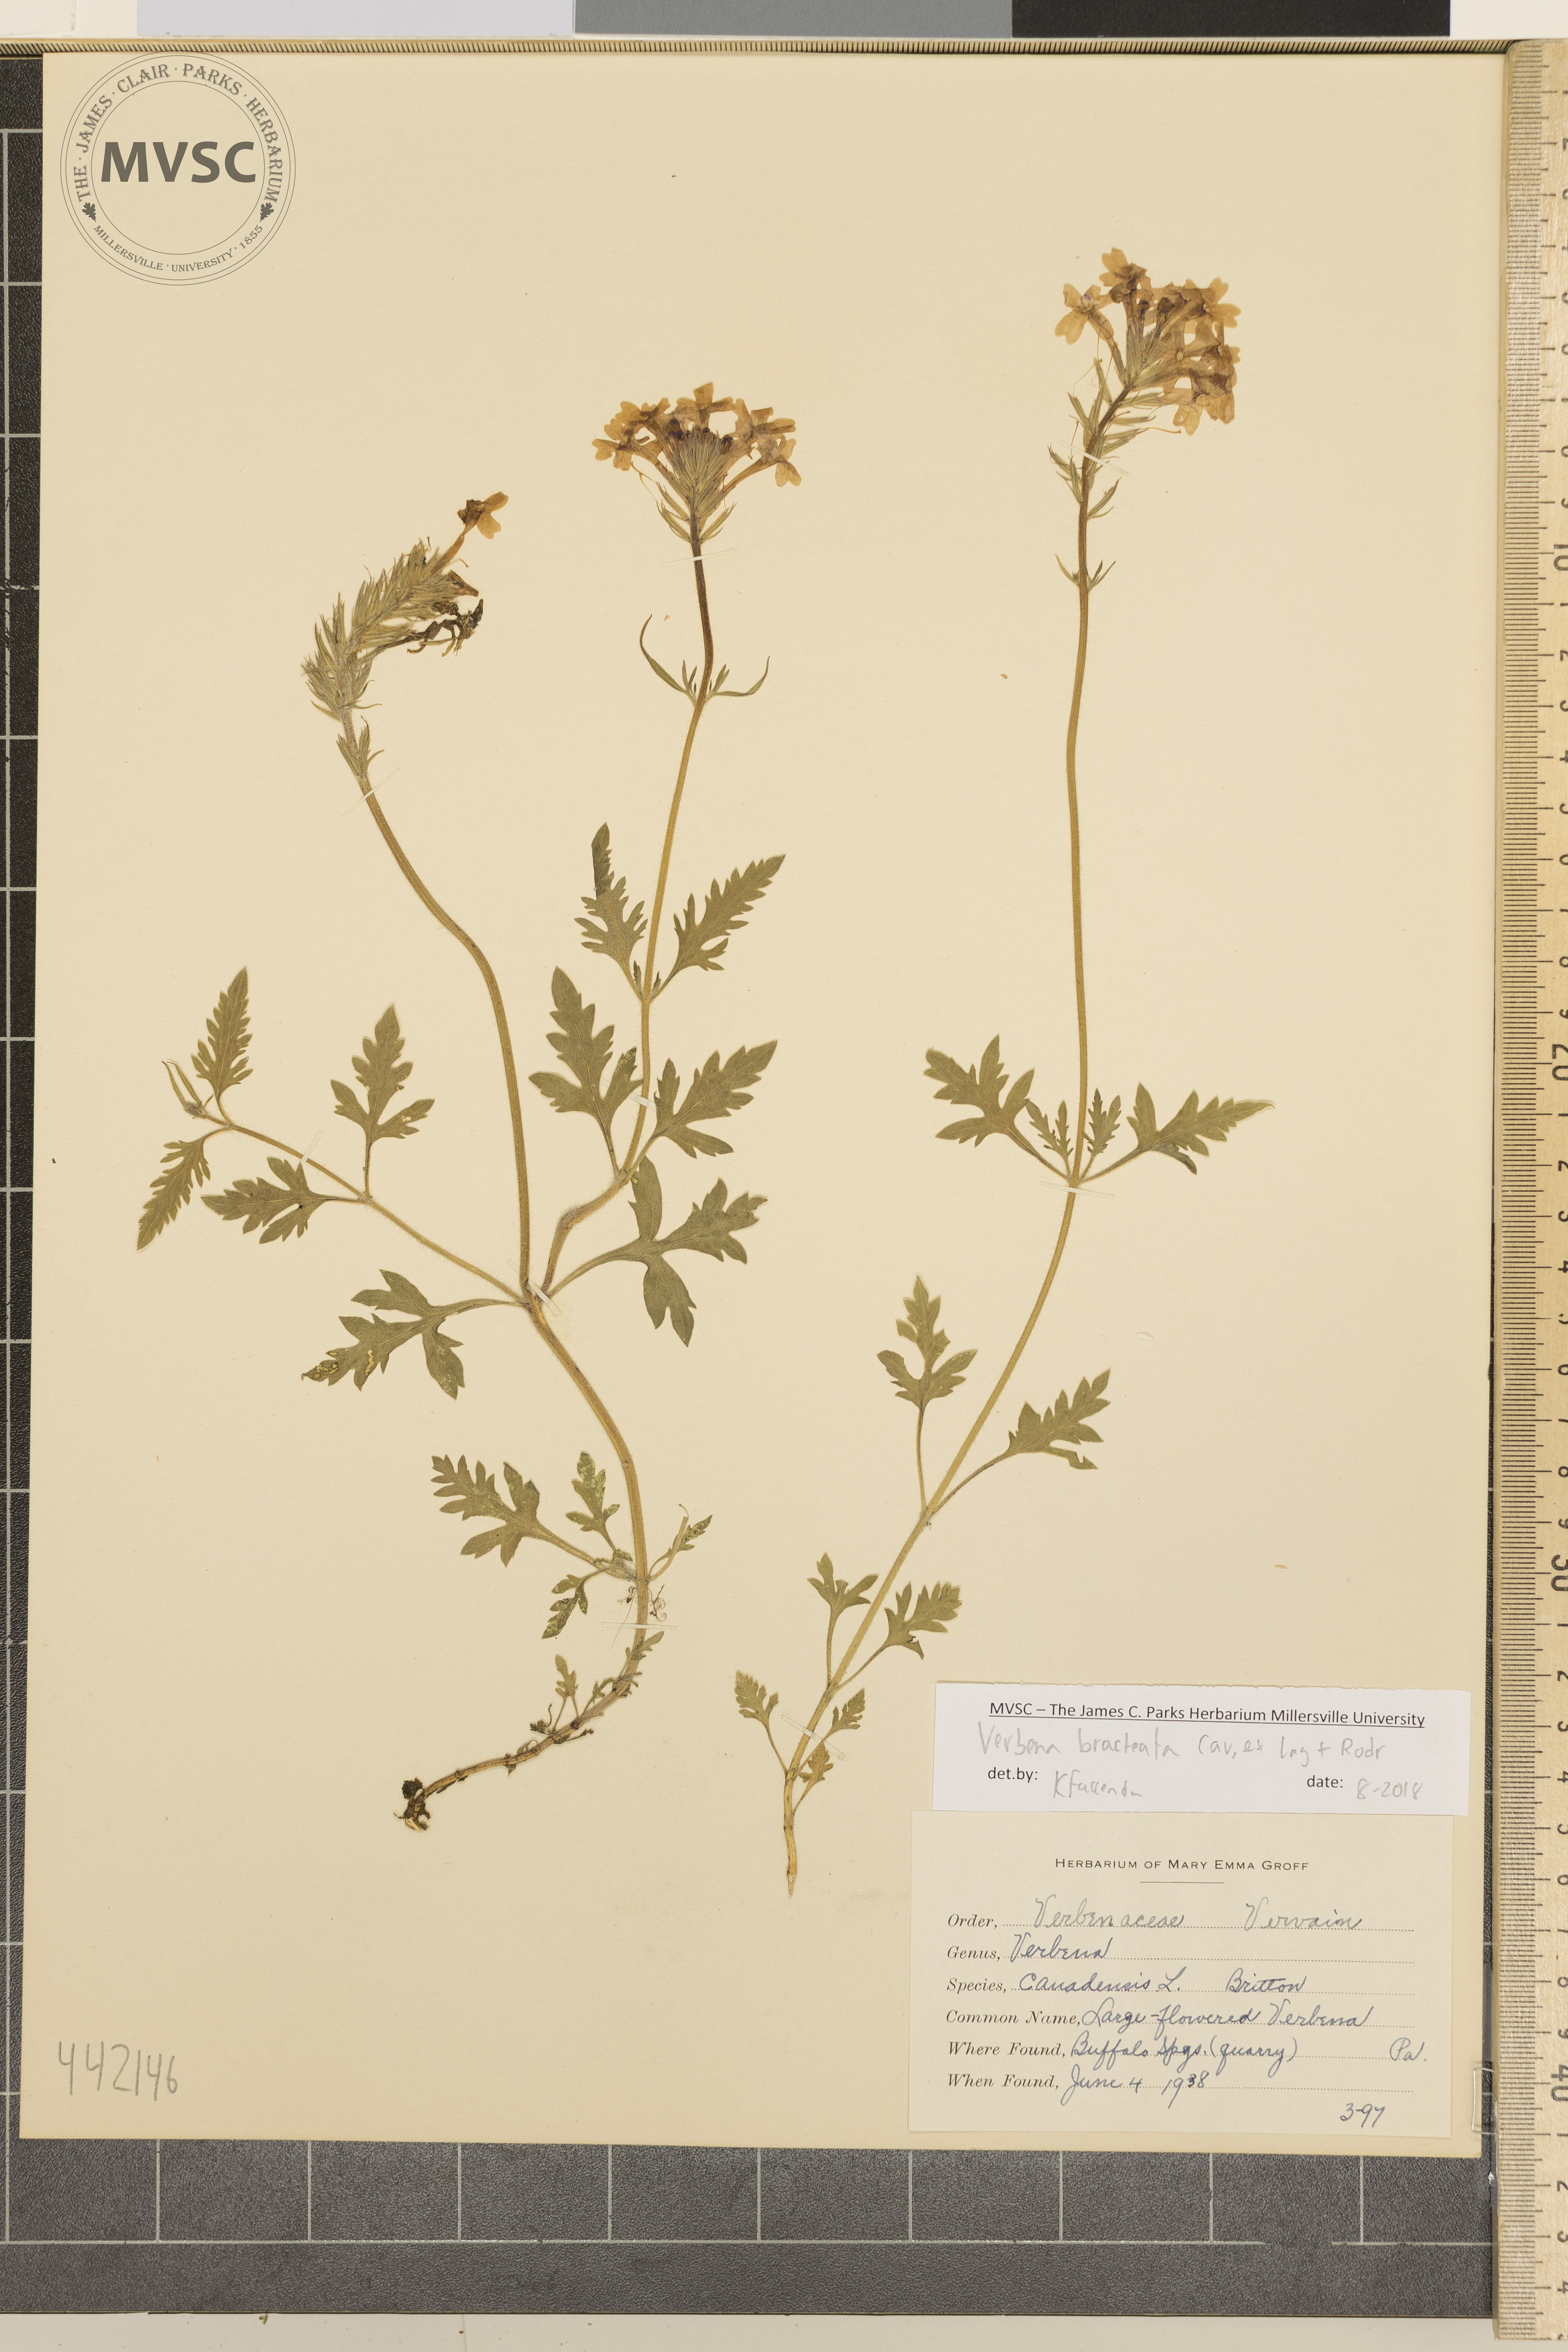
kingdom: Plantae
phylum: Tracheophyta
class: Magnoliopsida
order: Lamiales
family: Verbenaceae
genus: Verbena
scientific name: Verbena canadensis
